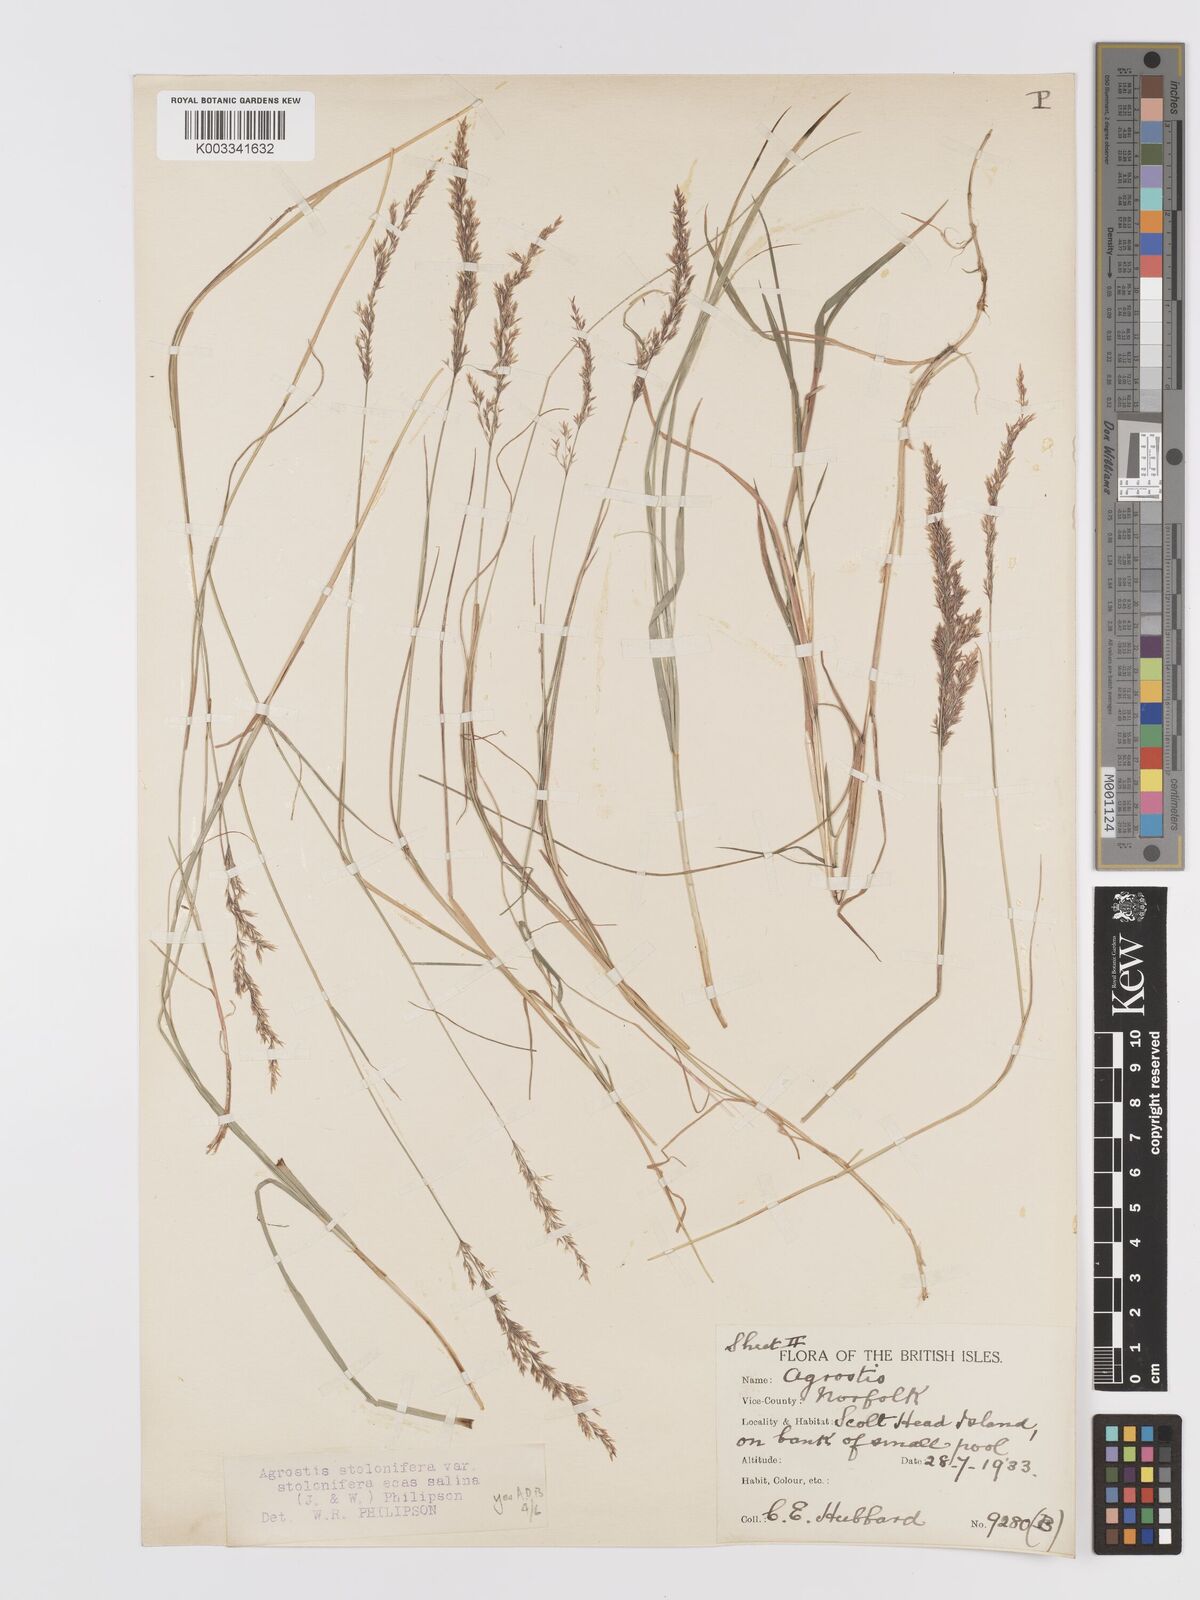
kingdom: Plantae
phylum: Tracheophyta
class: Liliopsida
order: Poales
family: Poaceae
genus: Agrostis
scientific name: Agrostis stolonifera
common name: Creeping bentgrass
